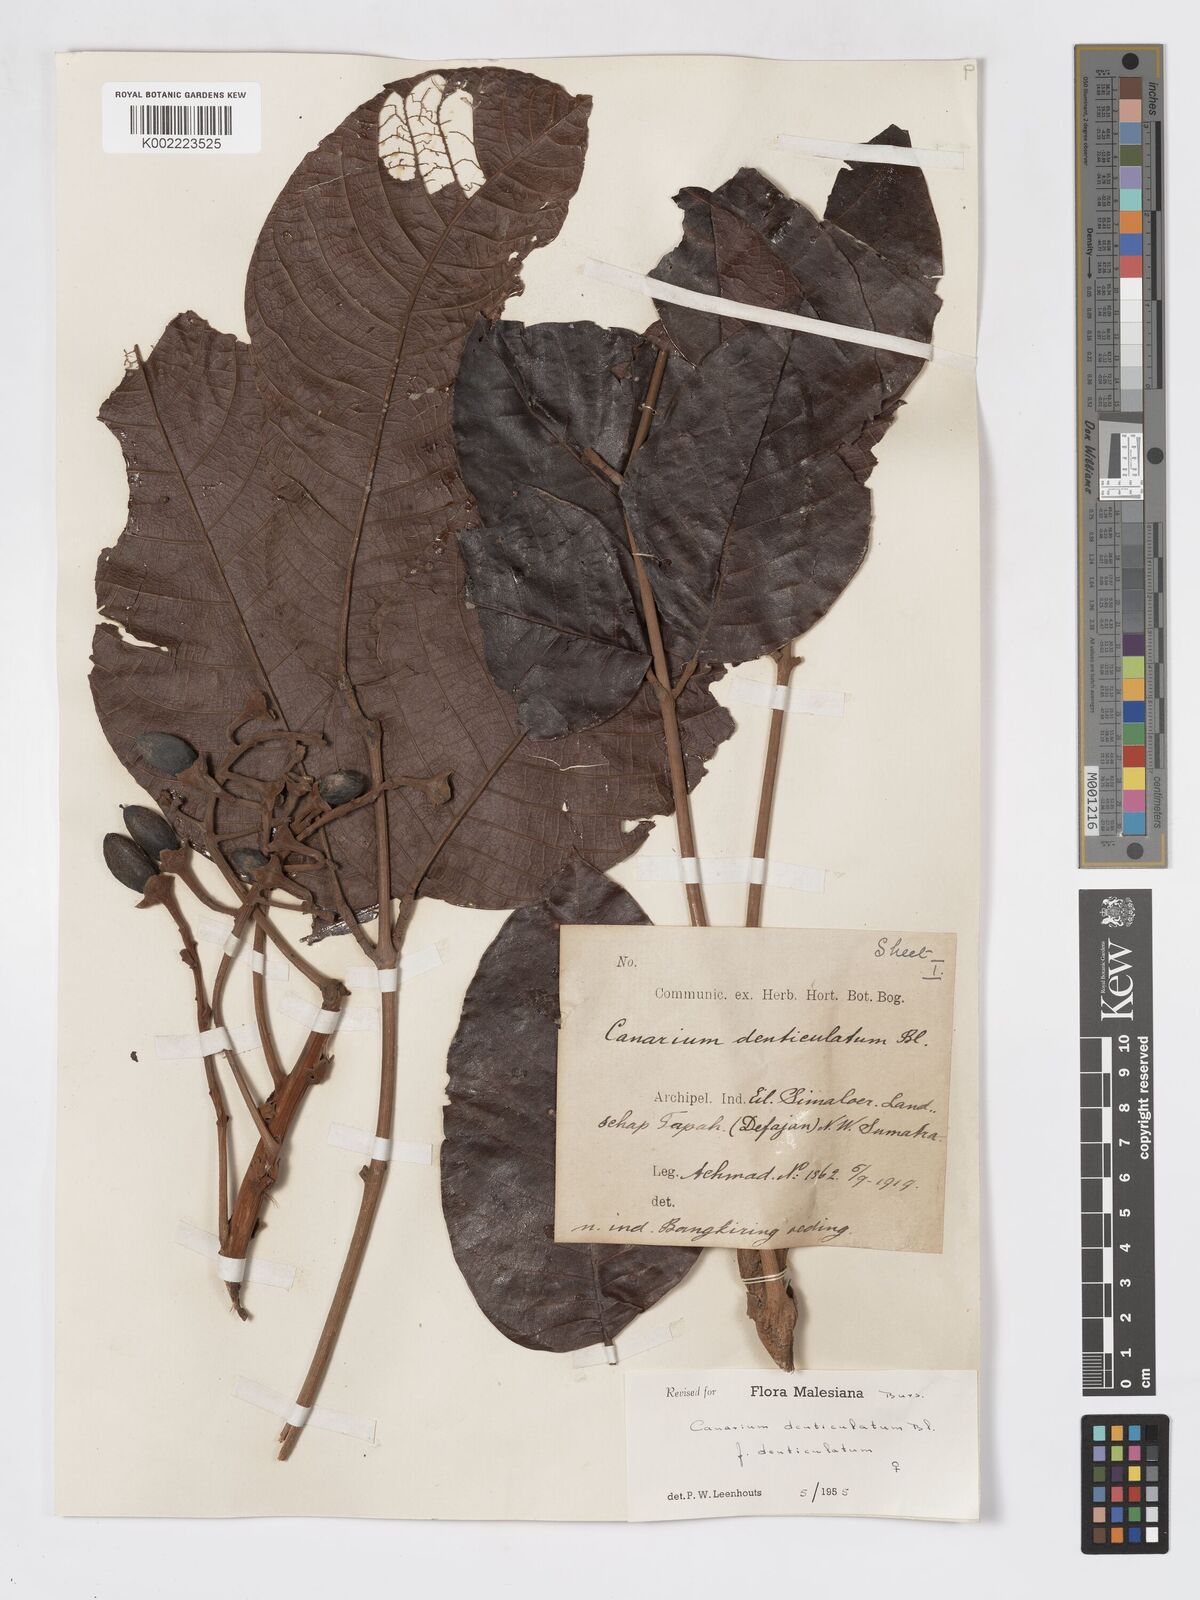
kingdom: Plantae
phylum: Tracheophyta
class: Magnoliopsida
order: Sapindales
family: Burseraceae
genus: Canarium
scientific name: Canarium denticulatum
